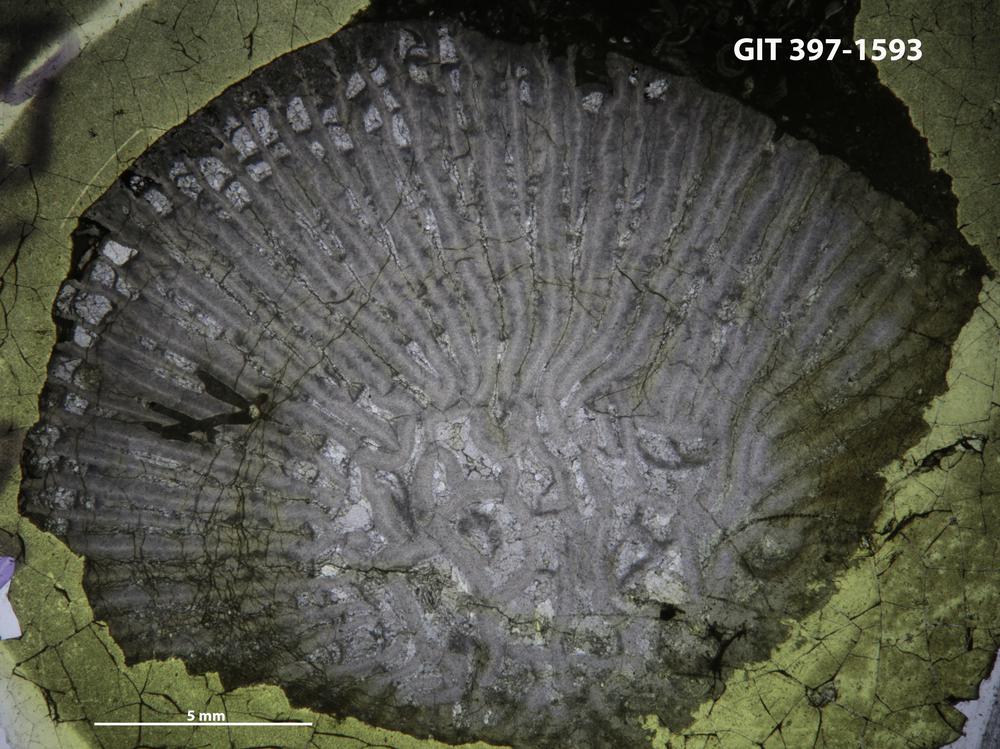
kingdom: Animalia
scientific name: Animalia
